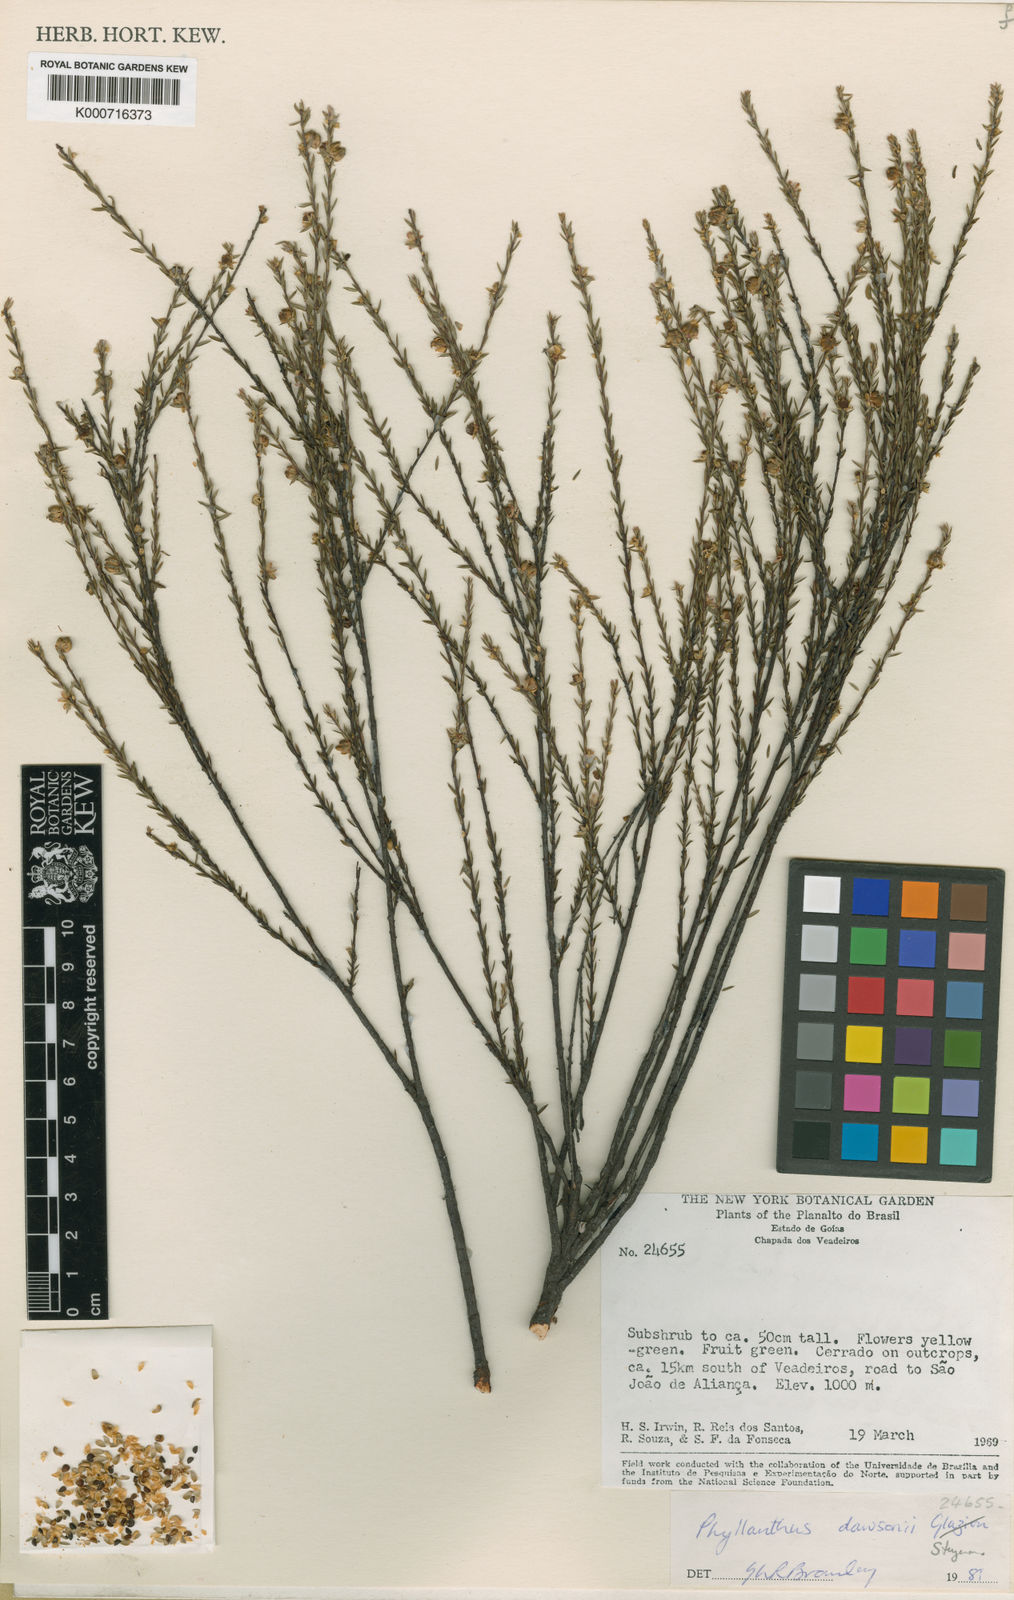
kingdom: Plantae
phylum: Tracheophyta
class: Magnoliopsida
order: Malpighiales
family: Phyllanthaceae
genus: Phyllanthus
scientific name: Phyllanthus dawsonii
